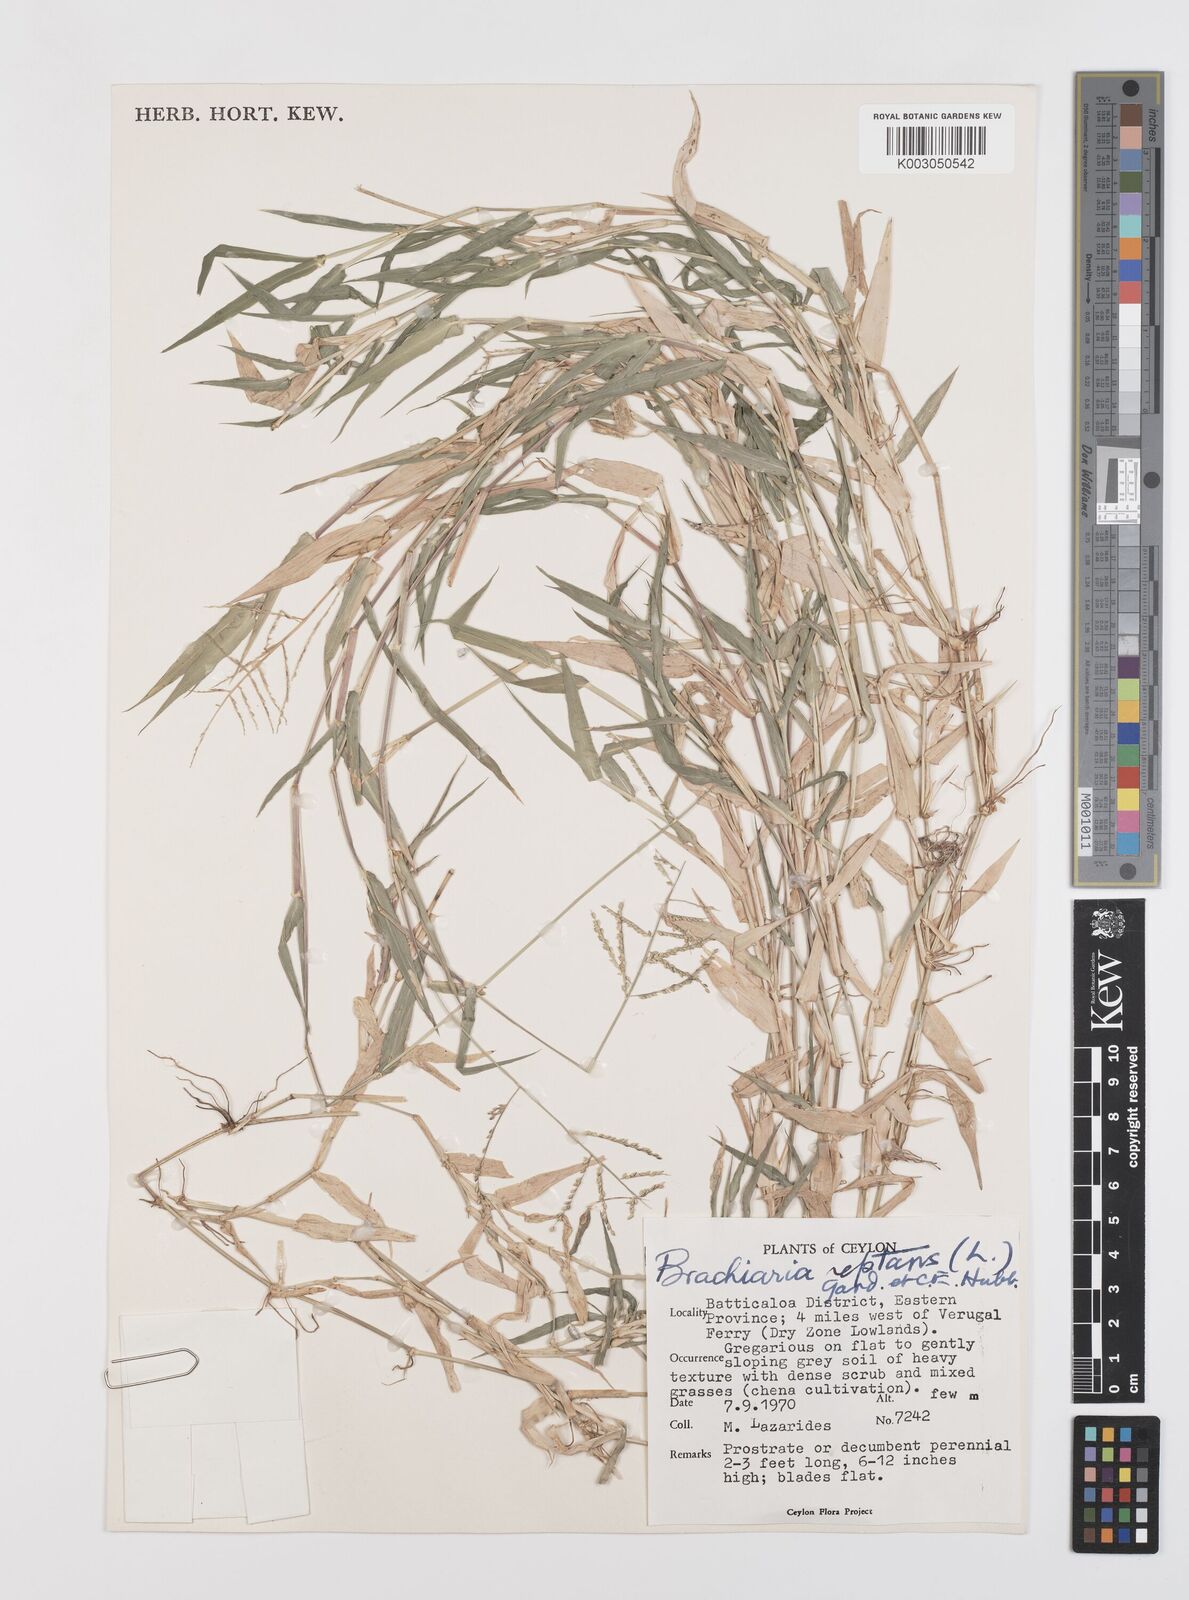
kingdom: Plantae
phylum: Tracheophyta
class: Liliopsida
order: Poales
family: Poaceae
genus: Urochloa
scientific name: Urochloa reptans
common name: Sprawling signalgrass
